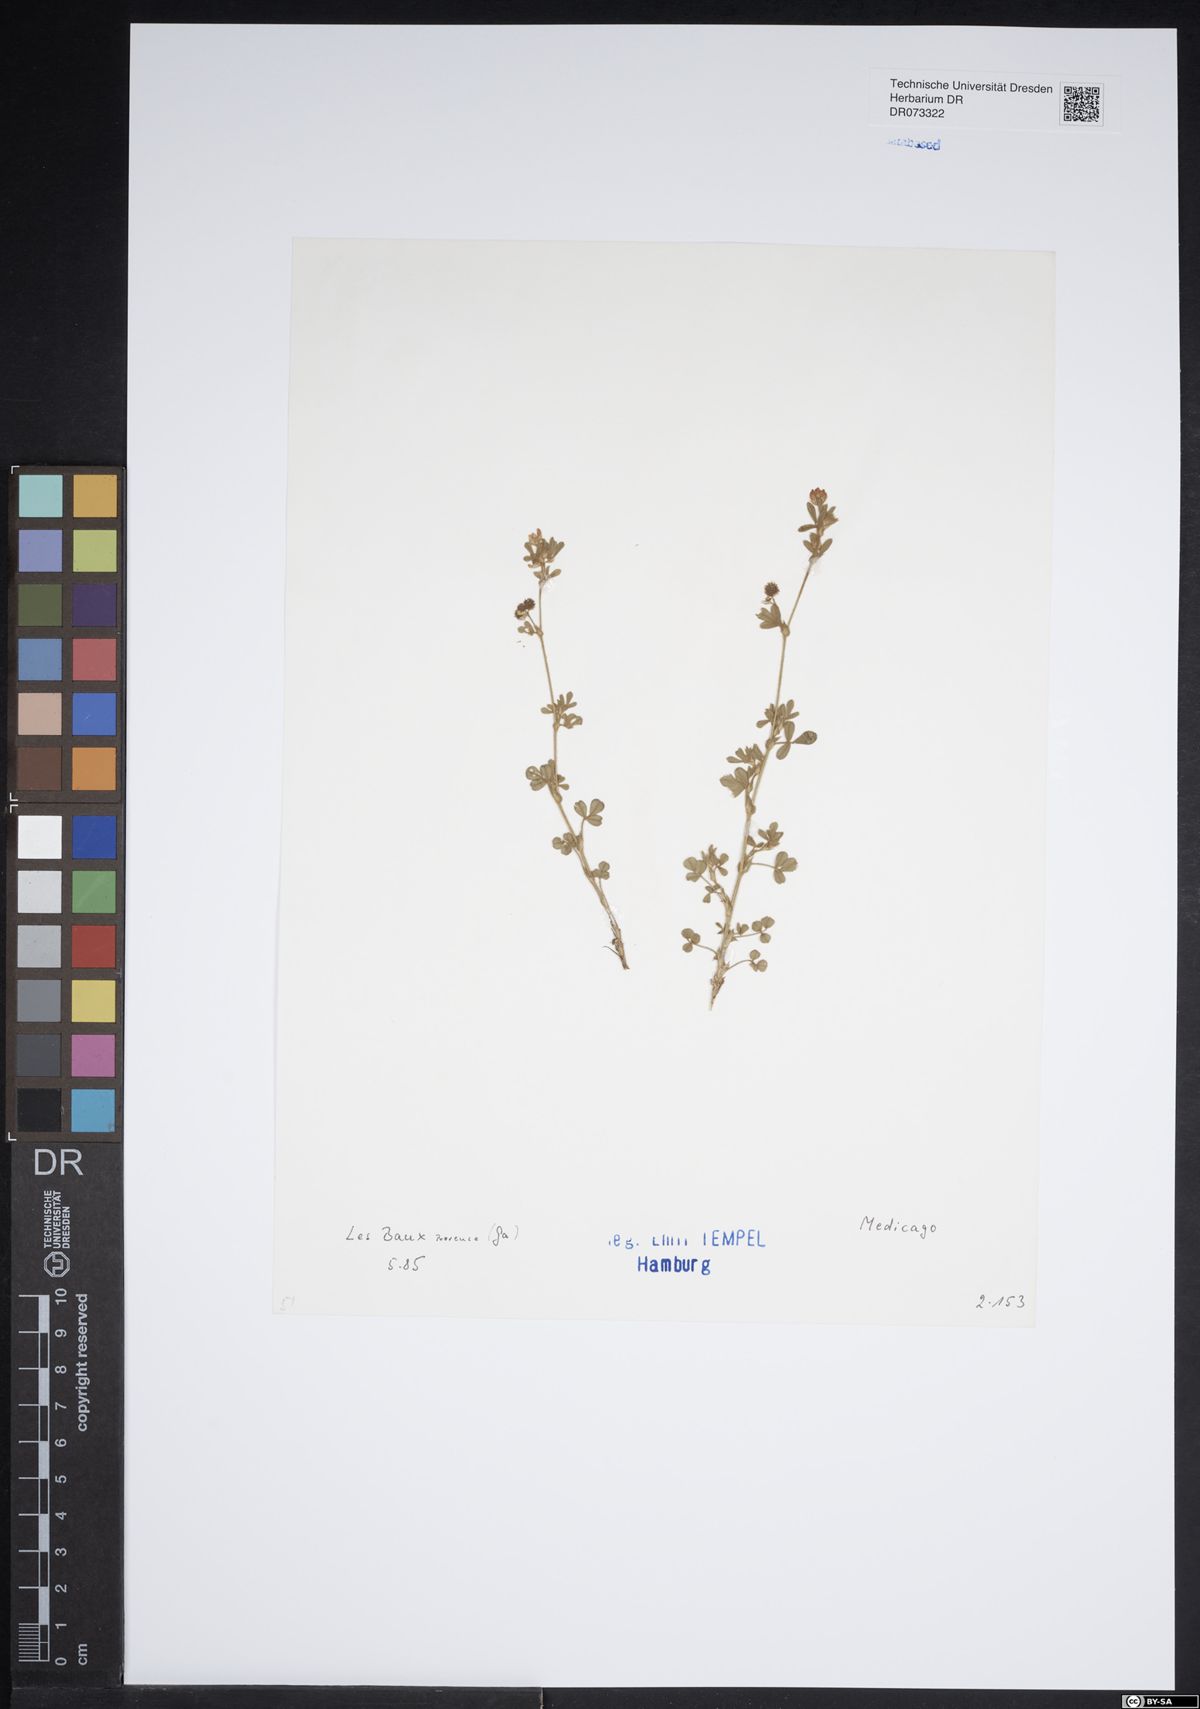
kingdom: Plantae
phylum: Tracheophyta
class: Magnoliopsida
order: Fabales
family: Fabaceae
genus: Medicago
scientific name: Medicago
